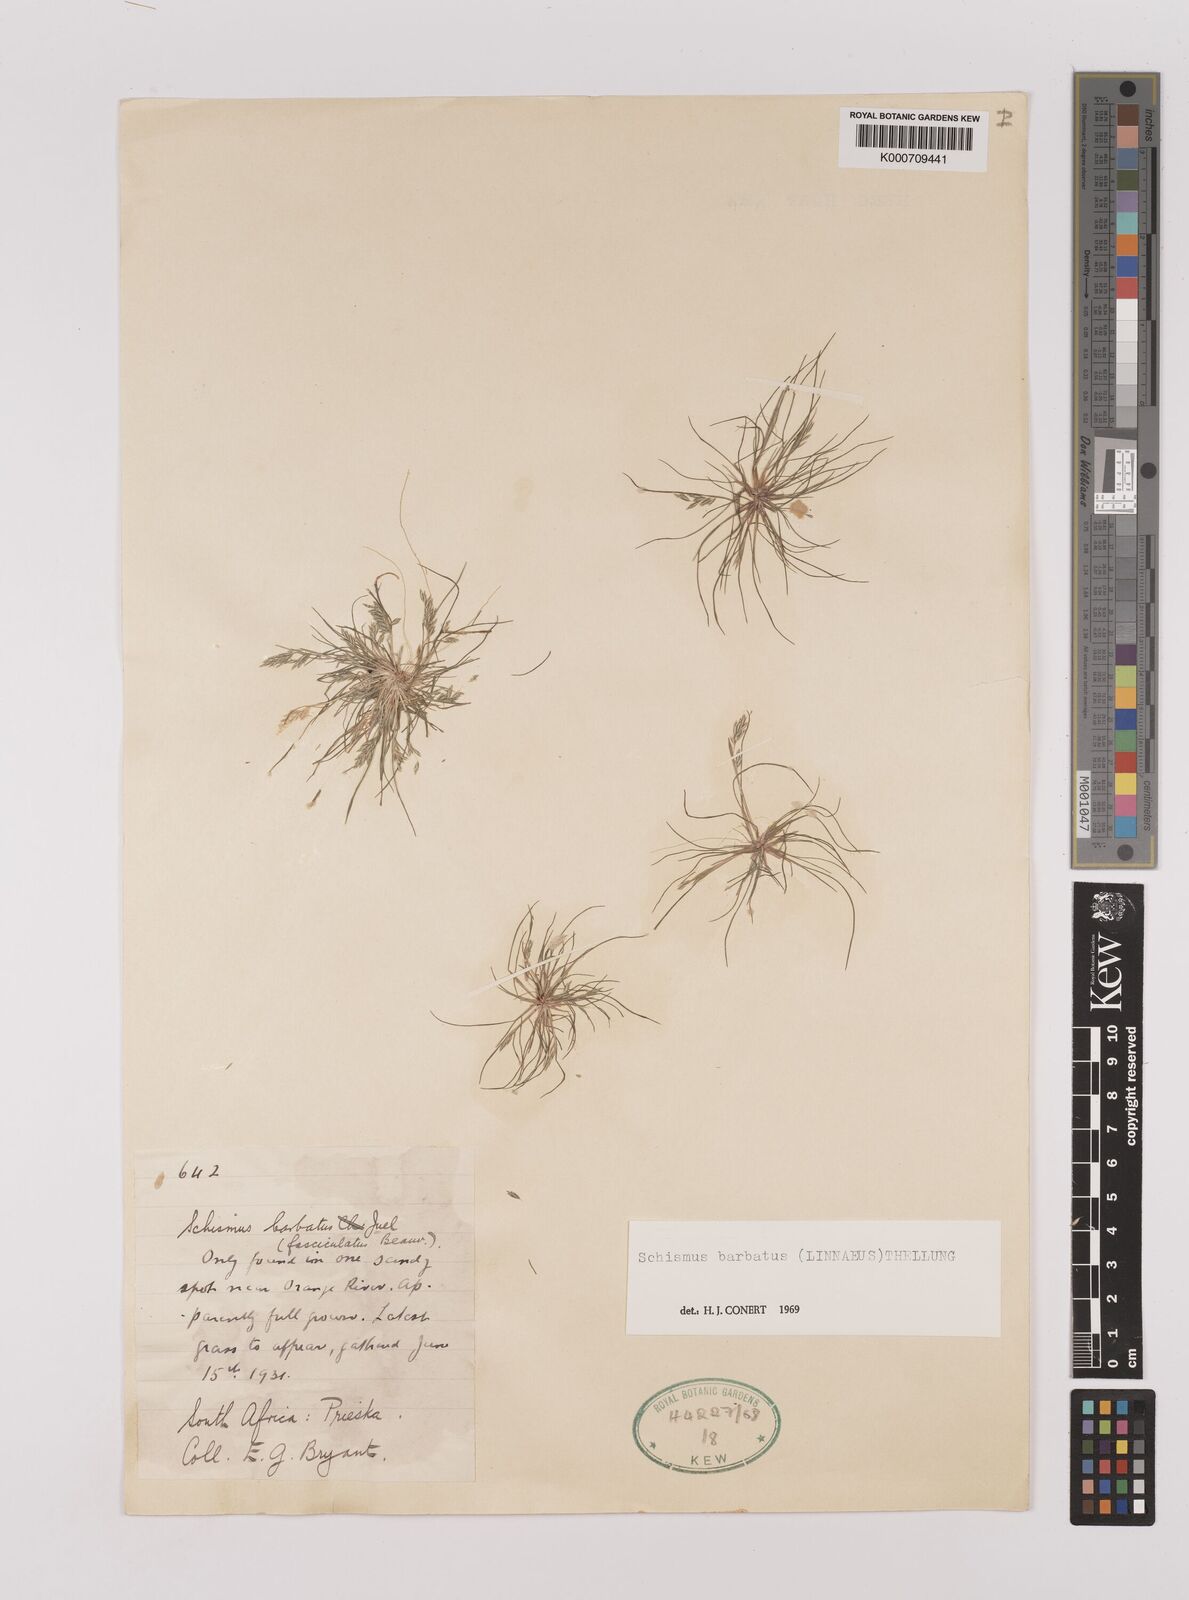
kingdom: Plantae
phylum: Tracheophyta
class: Liliopsida
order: Poales
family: Poaceae
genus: Schismus
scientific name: Schismus barbatus
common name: Kelch-grass
